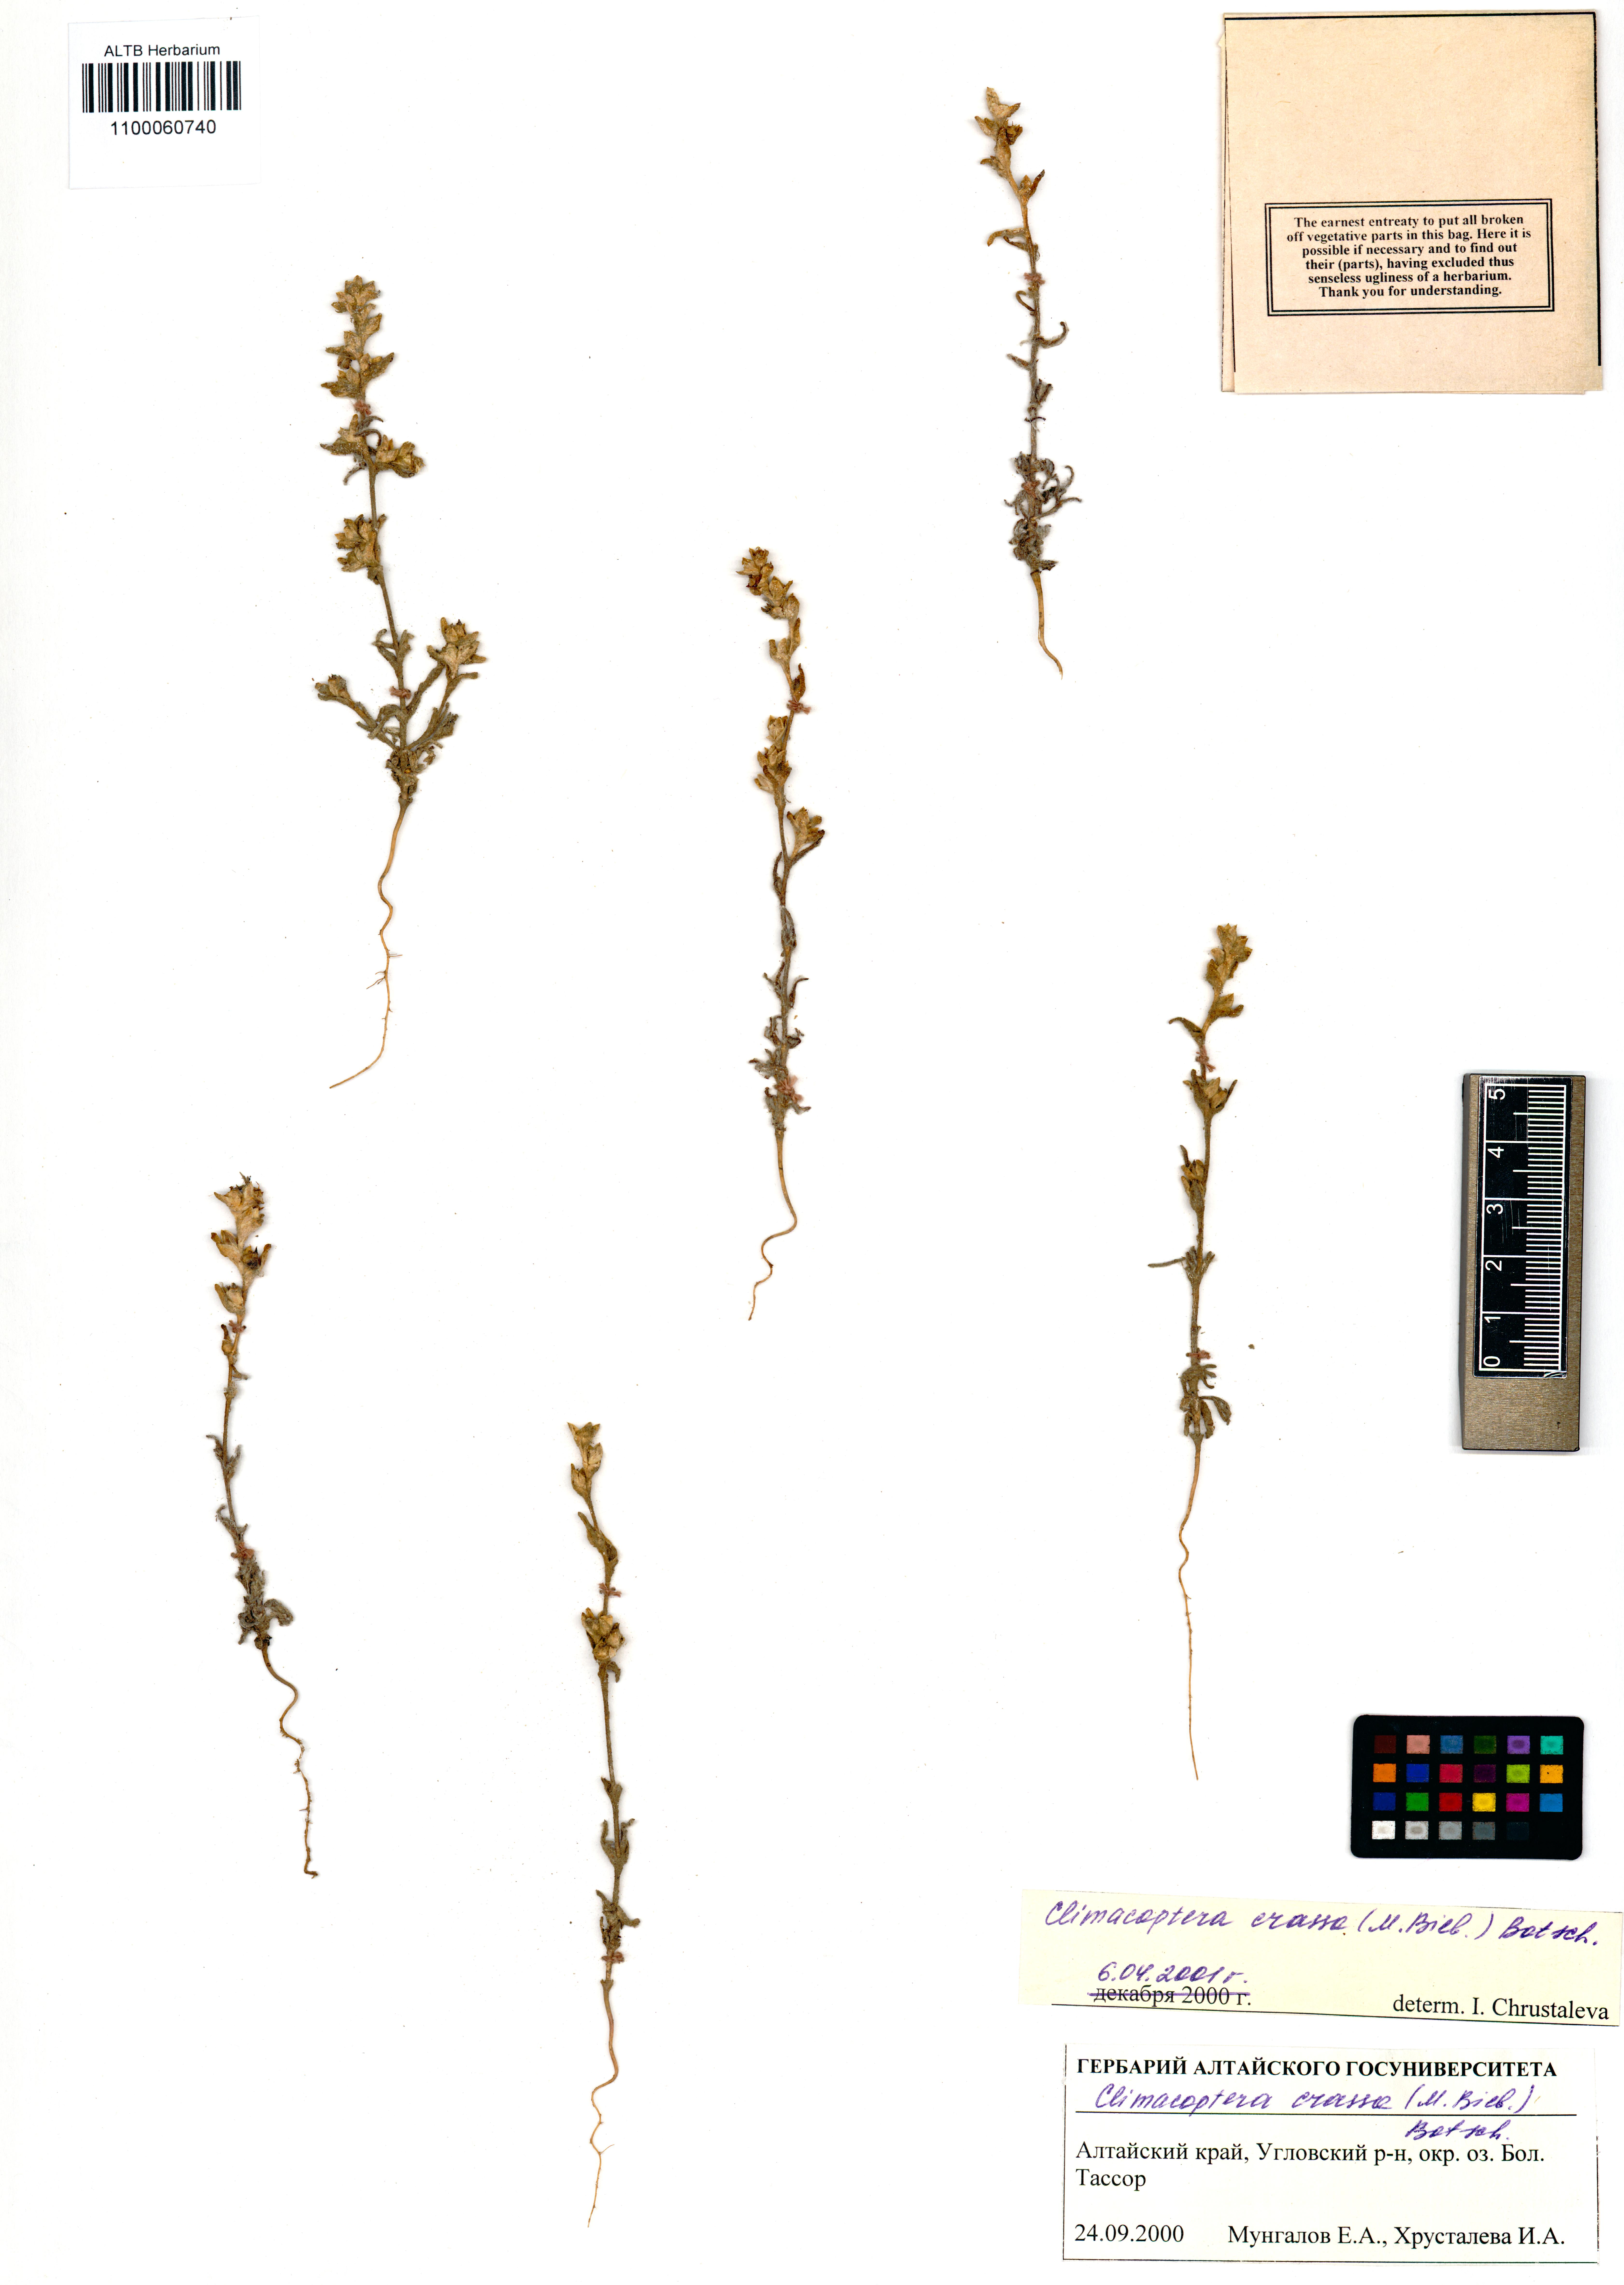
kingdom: Plantae
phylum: Tracheophyta
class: Magnoliopsida
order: Caryophyllales
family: Amaranthaceae
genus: Climacoptera
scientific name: Climacoptera crassa
